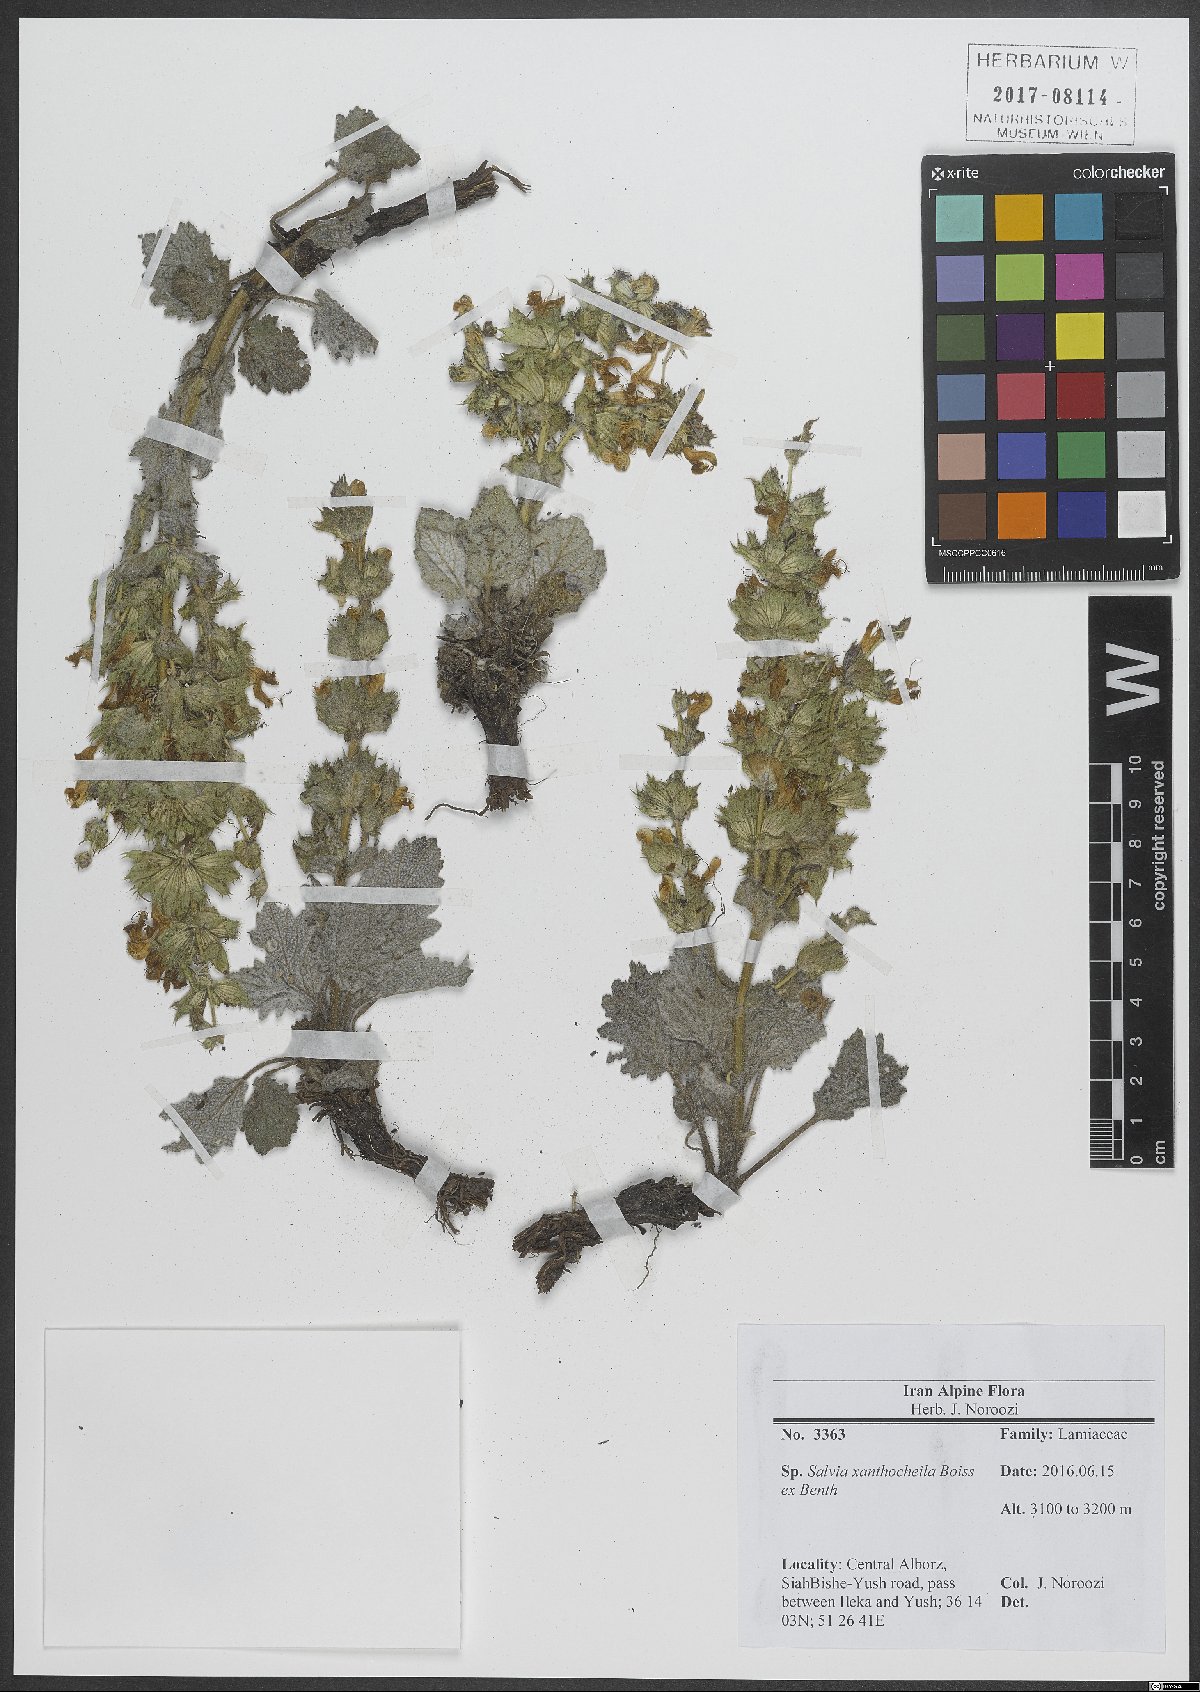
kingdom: Plantae
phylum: Tracheophyta
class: Magnoliopsida
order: Lamiales
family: Lamiaceae
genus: Salvia
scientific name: Salvia xanthocheila
